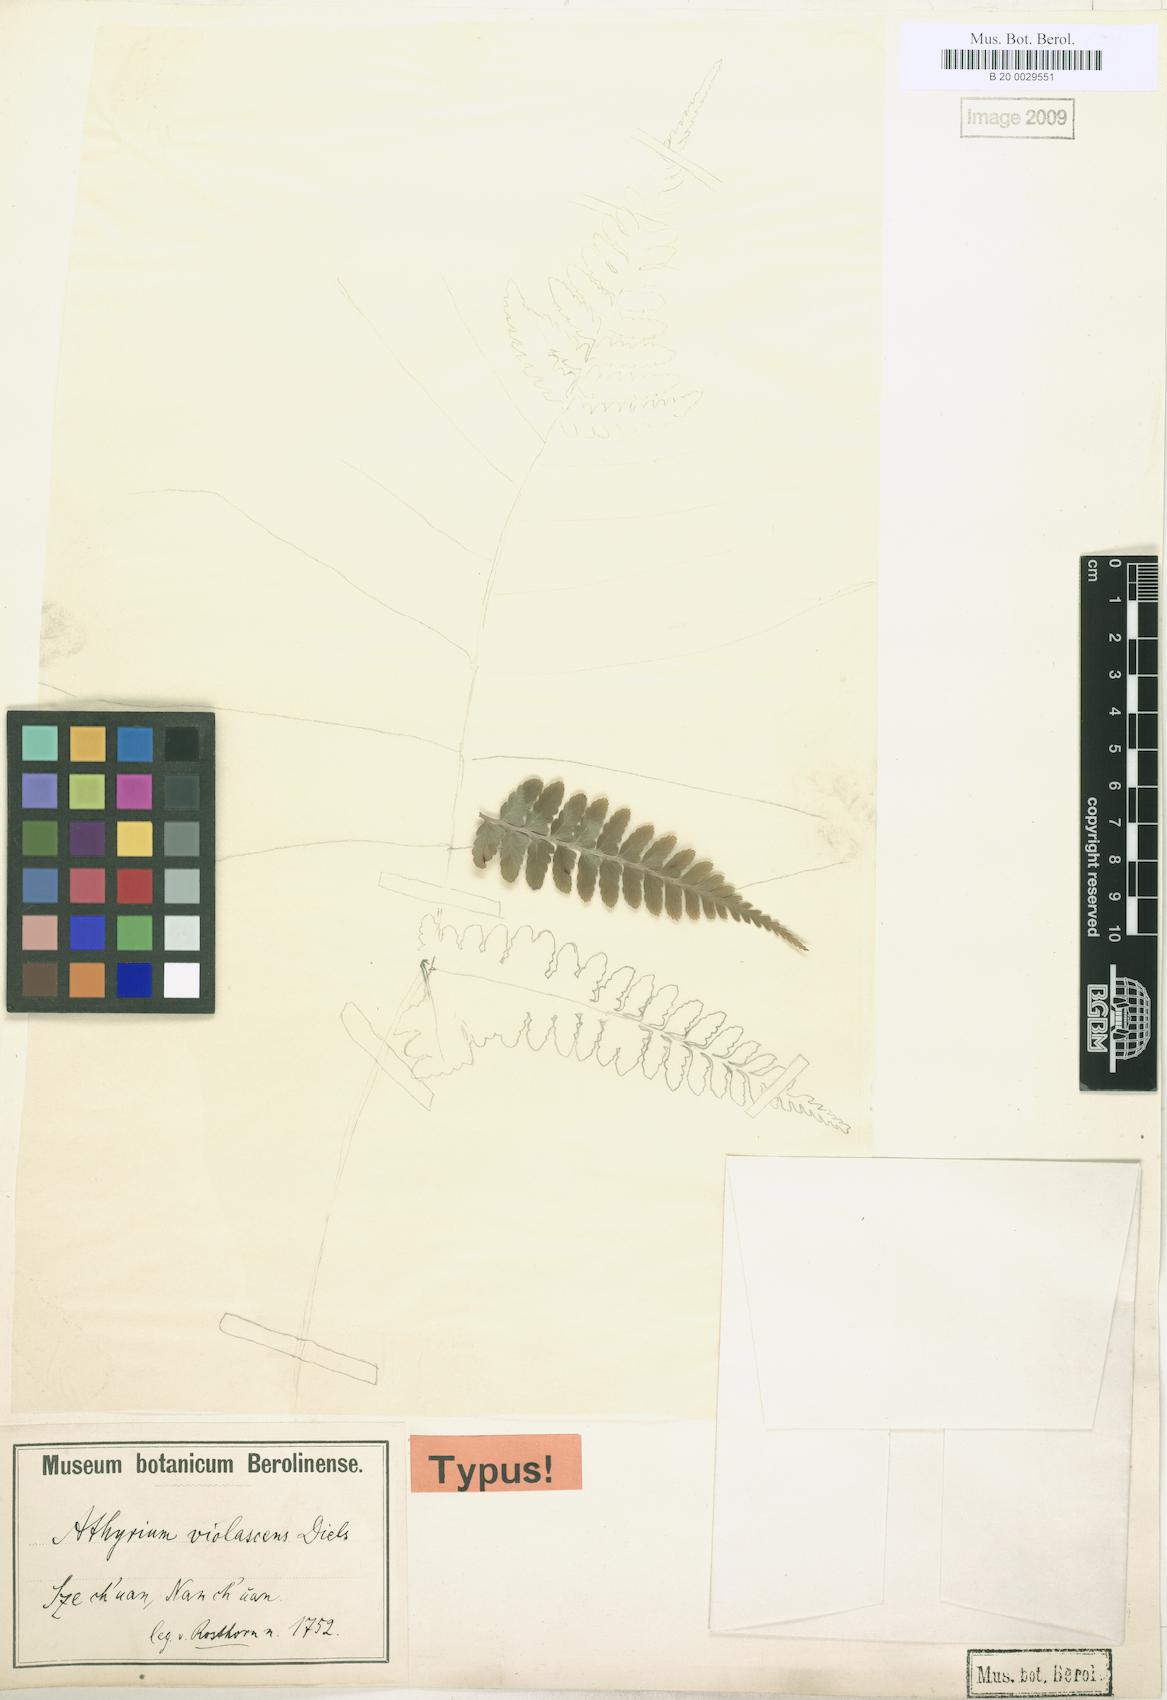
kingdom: Plantae
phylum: Tracheophyta
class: Polypodiopsida
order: Polypodiales
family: Athyriaceae
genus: Athyrium
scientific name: Athyrium otophorum
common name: Auriculate lady fern
